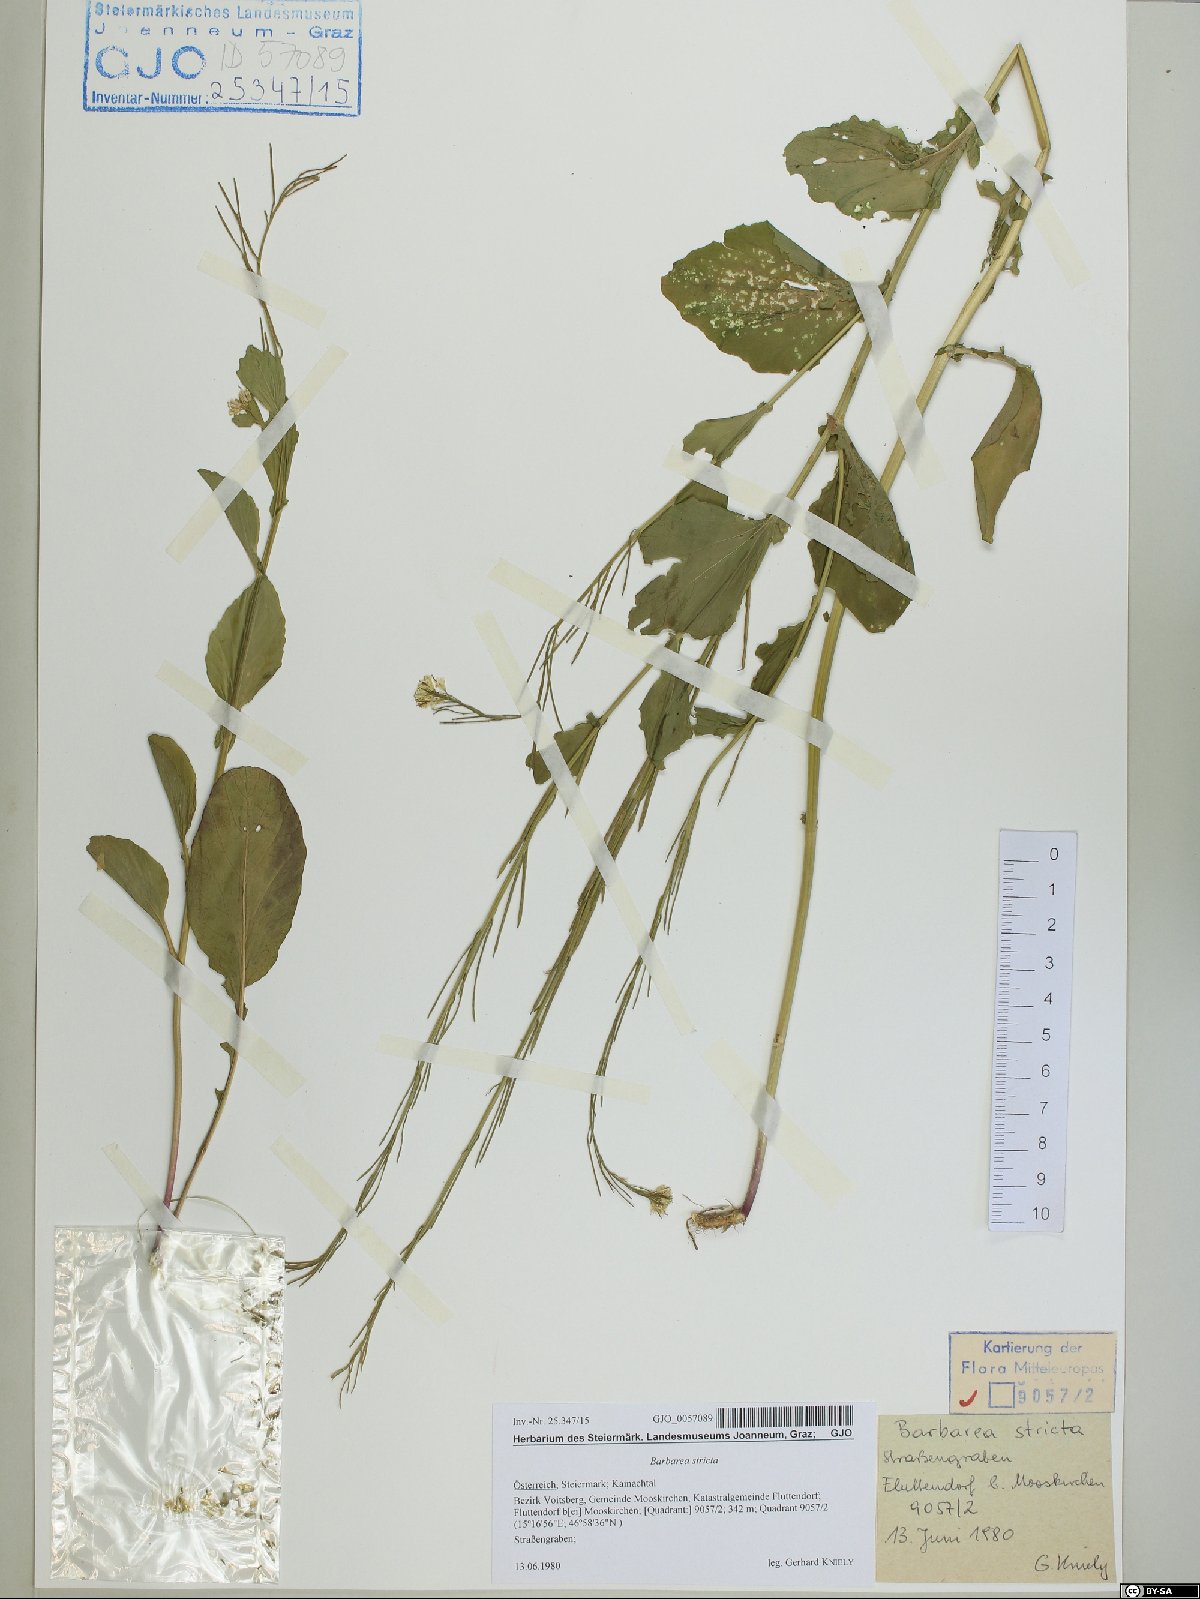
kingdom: Plantae
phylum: Tracheophyta
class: Magnoliopsida
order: Brassicales
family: Brassicaceae
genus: Barbarea
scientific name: Barbarea stricta
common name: Small-flowered winter-cress
